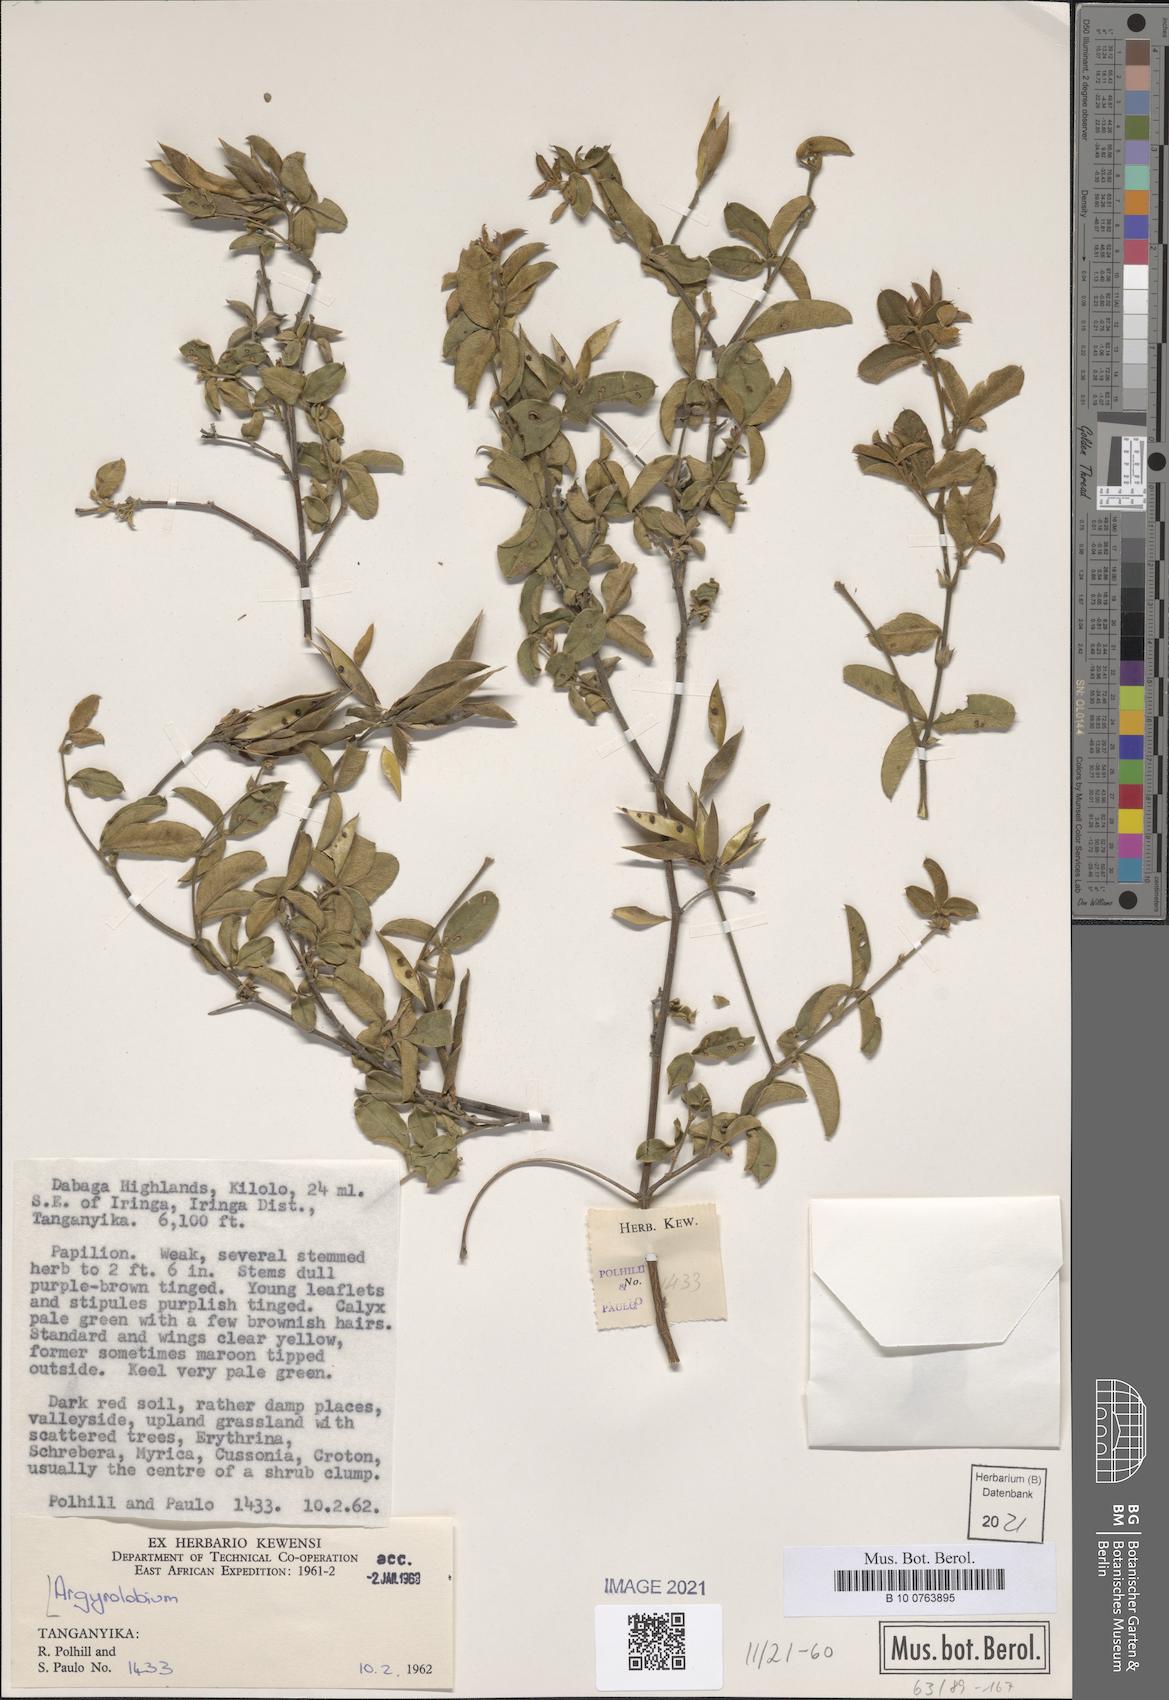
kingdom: Plantae
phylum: Tracheophyta
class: Magnoliopsida
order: Fabales
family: Fabaceae
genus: Argyrolobium
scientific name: Argyrolobium
